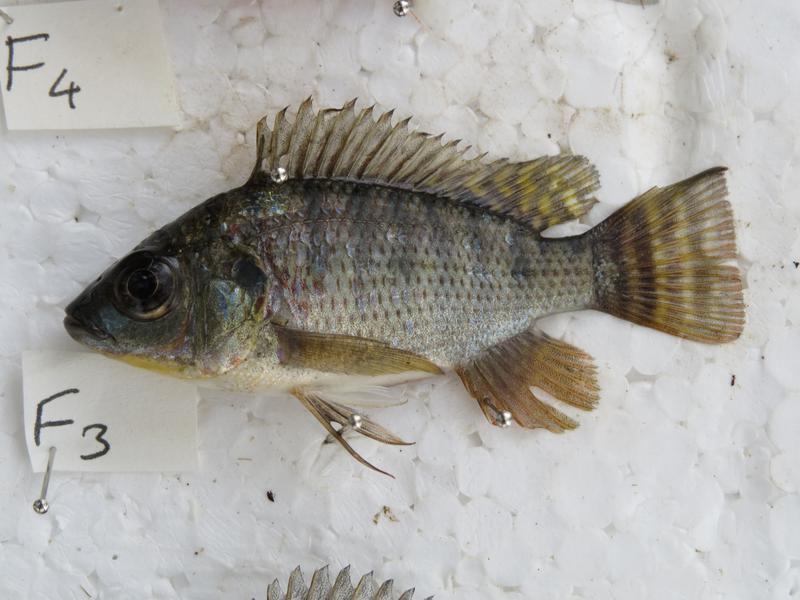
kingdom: Animalia
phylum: Chordata
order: Perciformes
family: Cichlidae
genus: Oreochromis
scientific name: Oreochromis niloticus
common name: Nile tilapia
